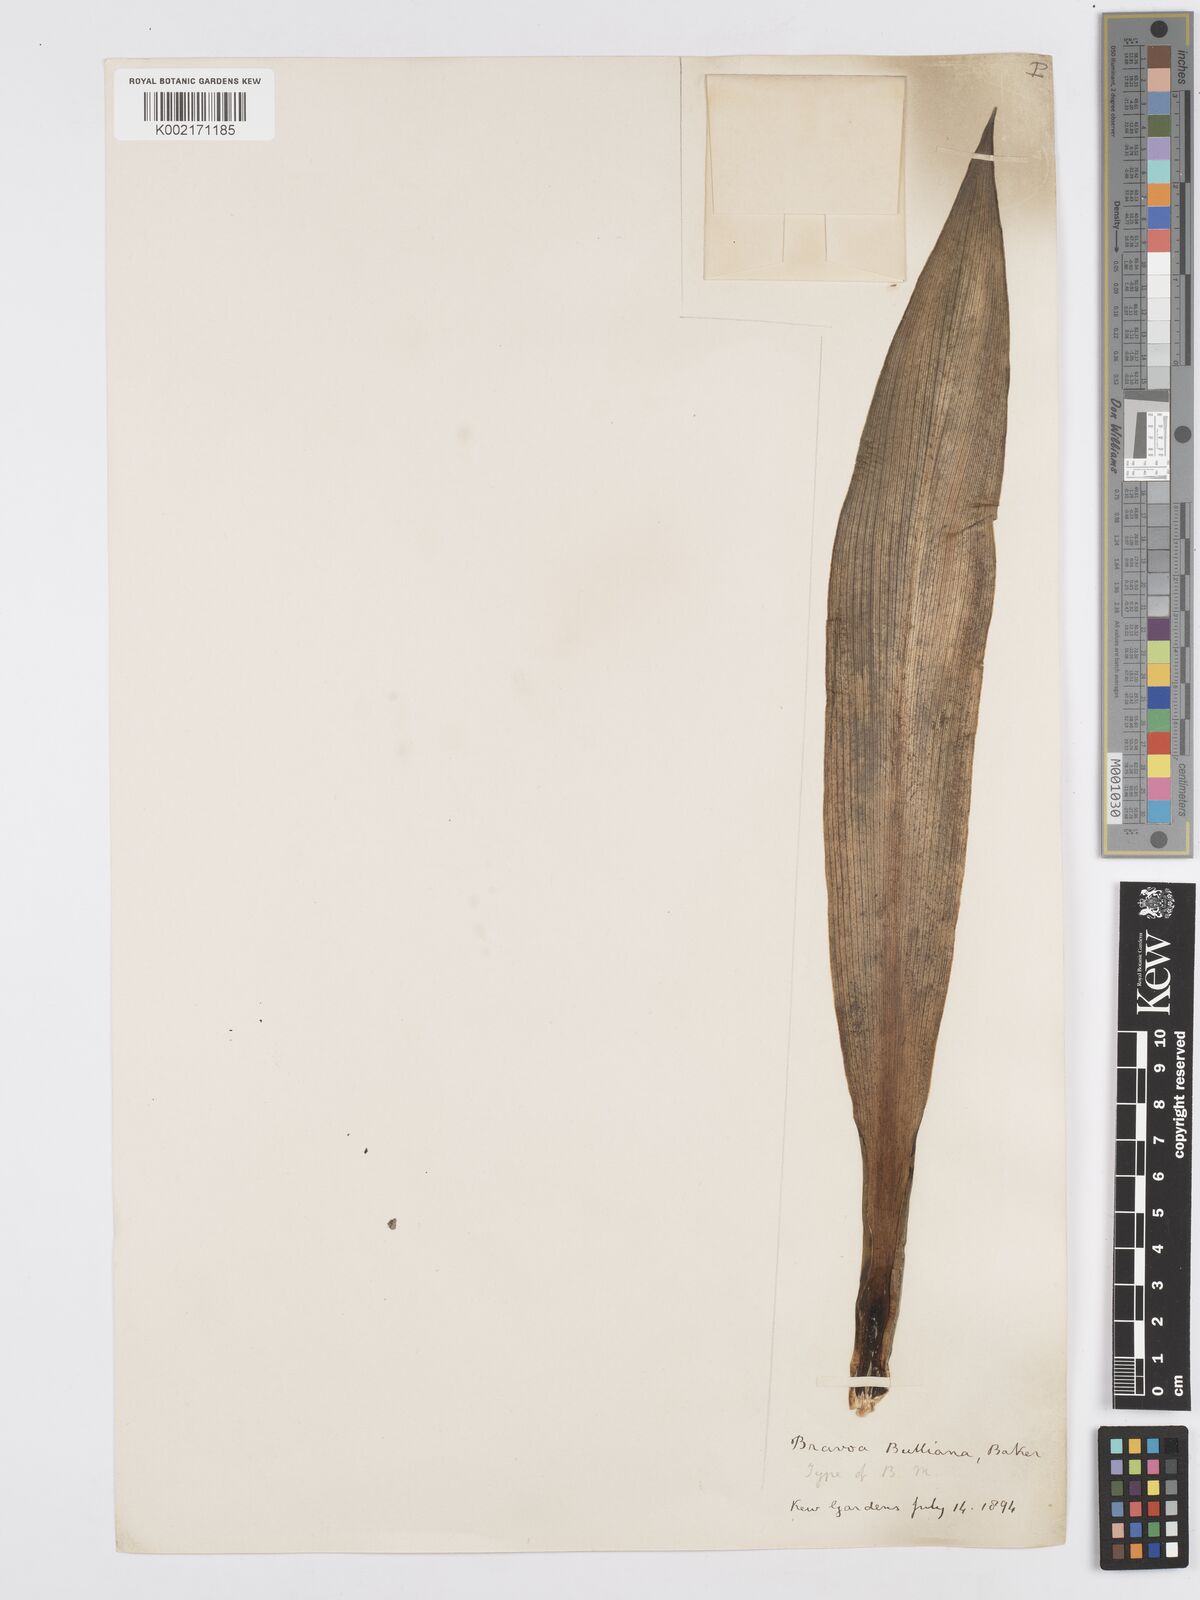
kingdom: Plantae
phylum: Tracheophyta
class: Liliopsida
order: Asparagales
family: Asparagaceae
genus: Agave
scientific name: Agave bulliana
